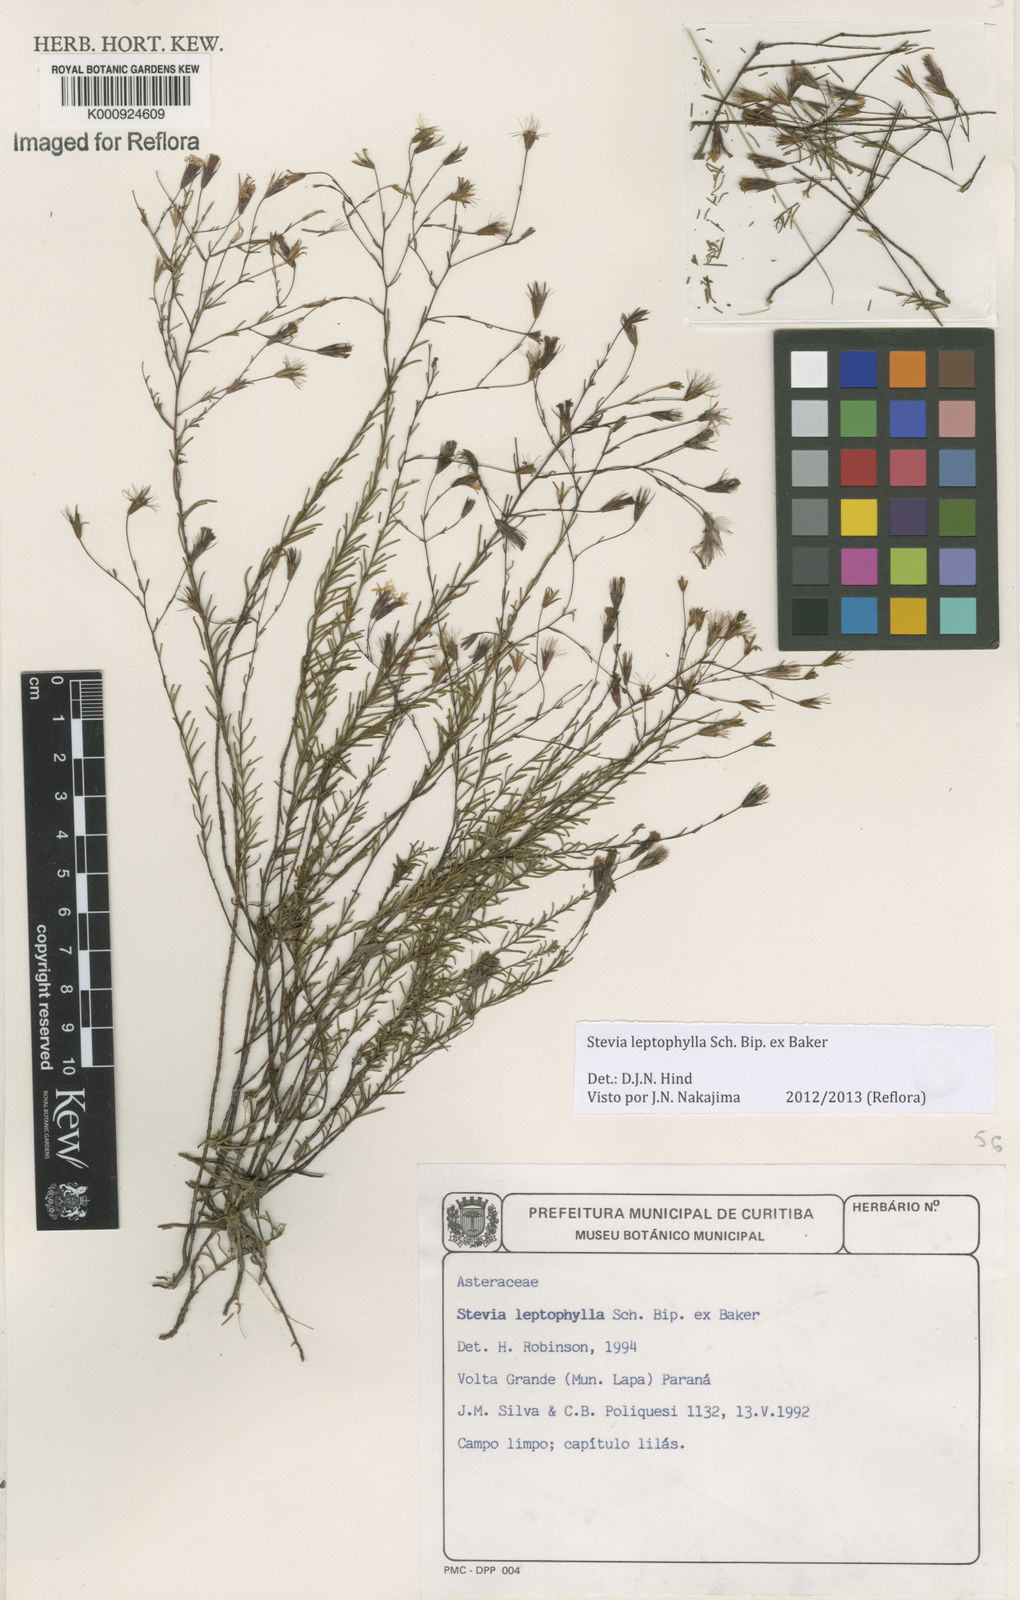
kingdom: Plantae
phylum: Tracheophyta
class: Magnoliopsida
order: Asterales
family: Asteraceae
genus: Stevia
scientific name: Stevia
